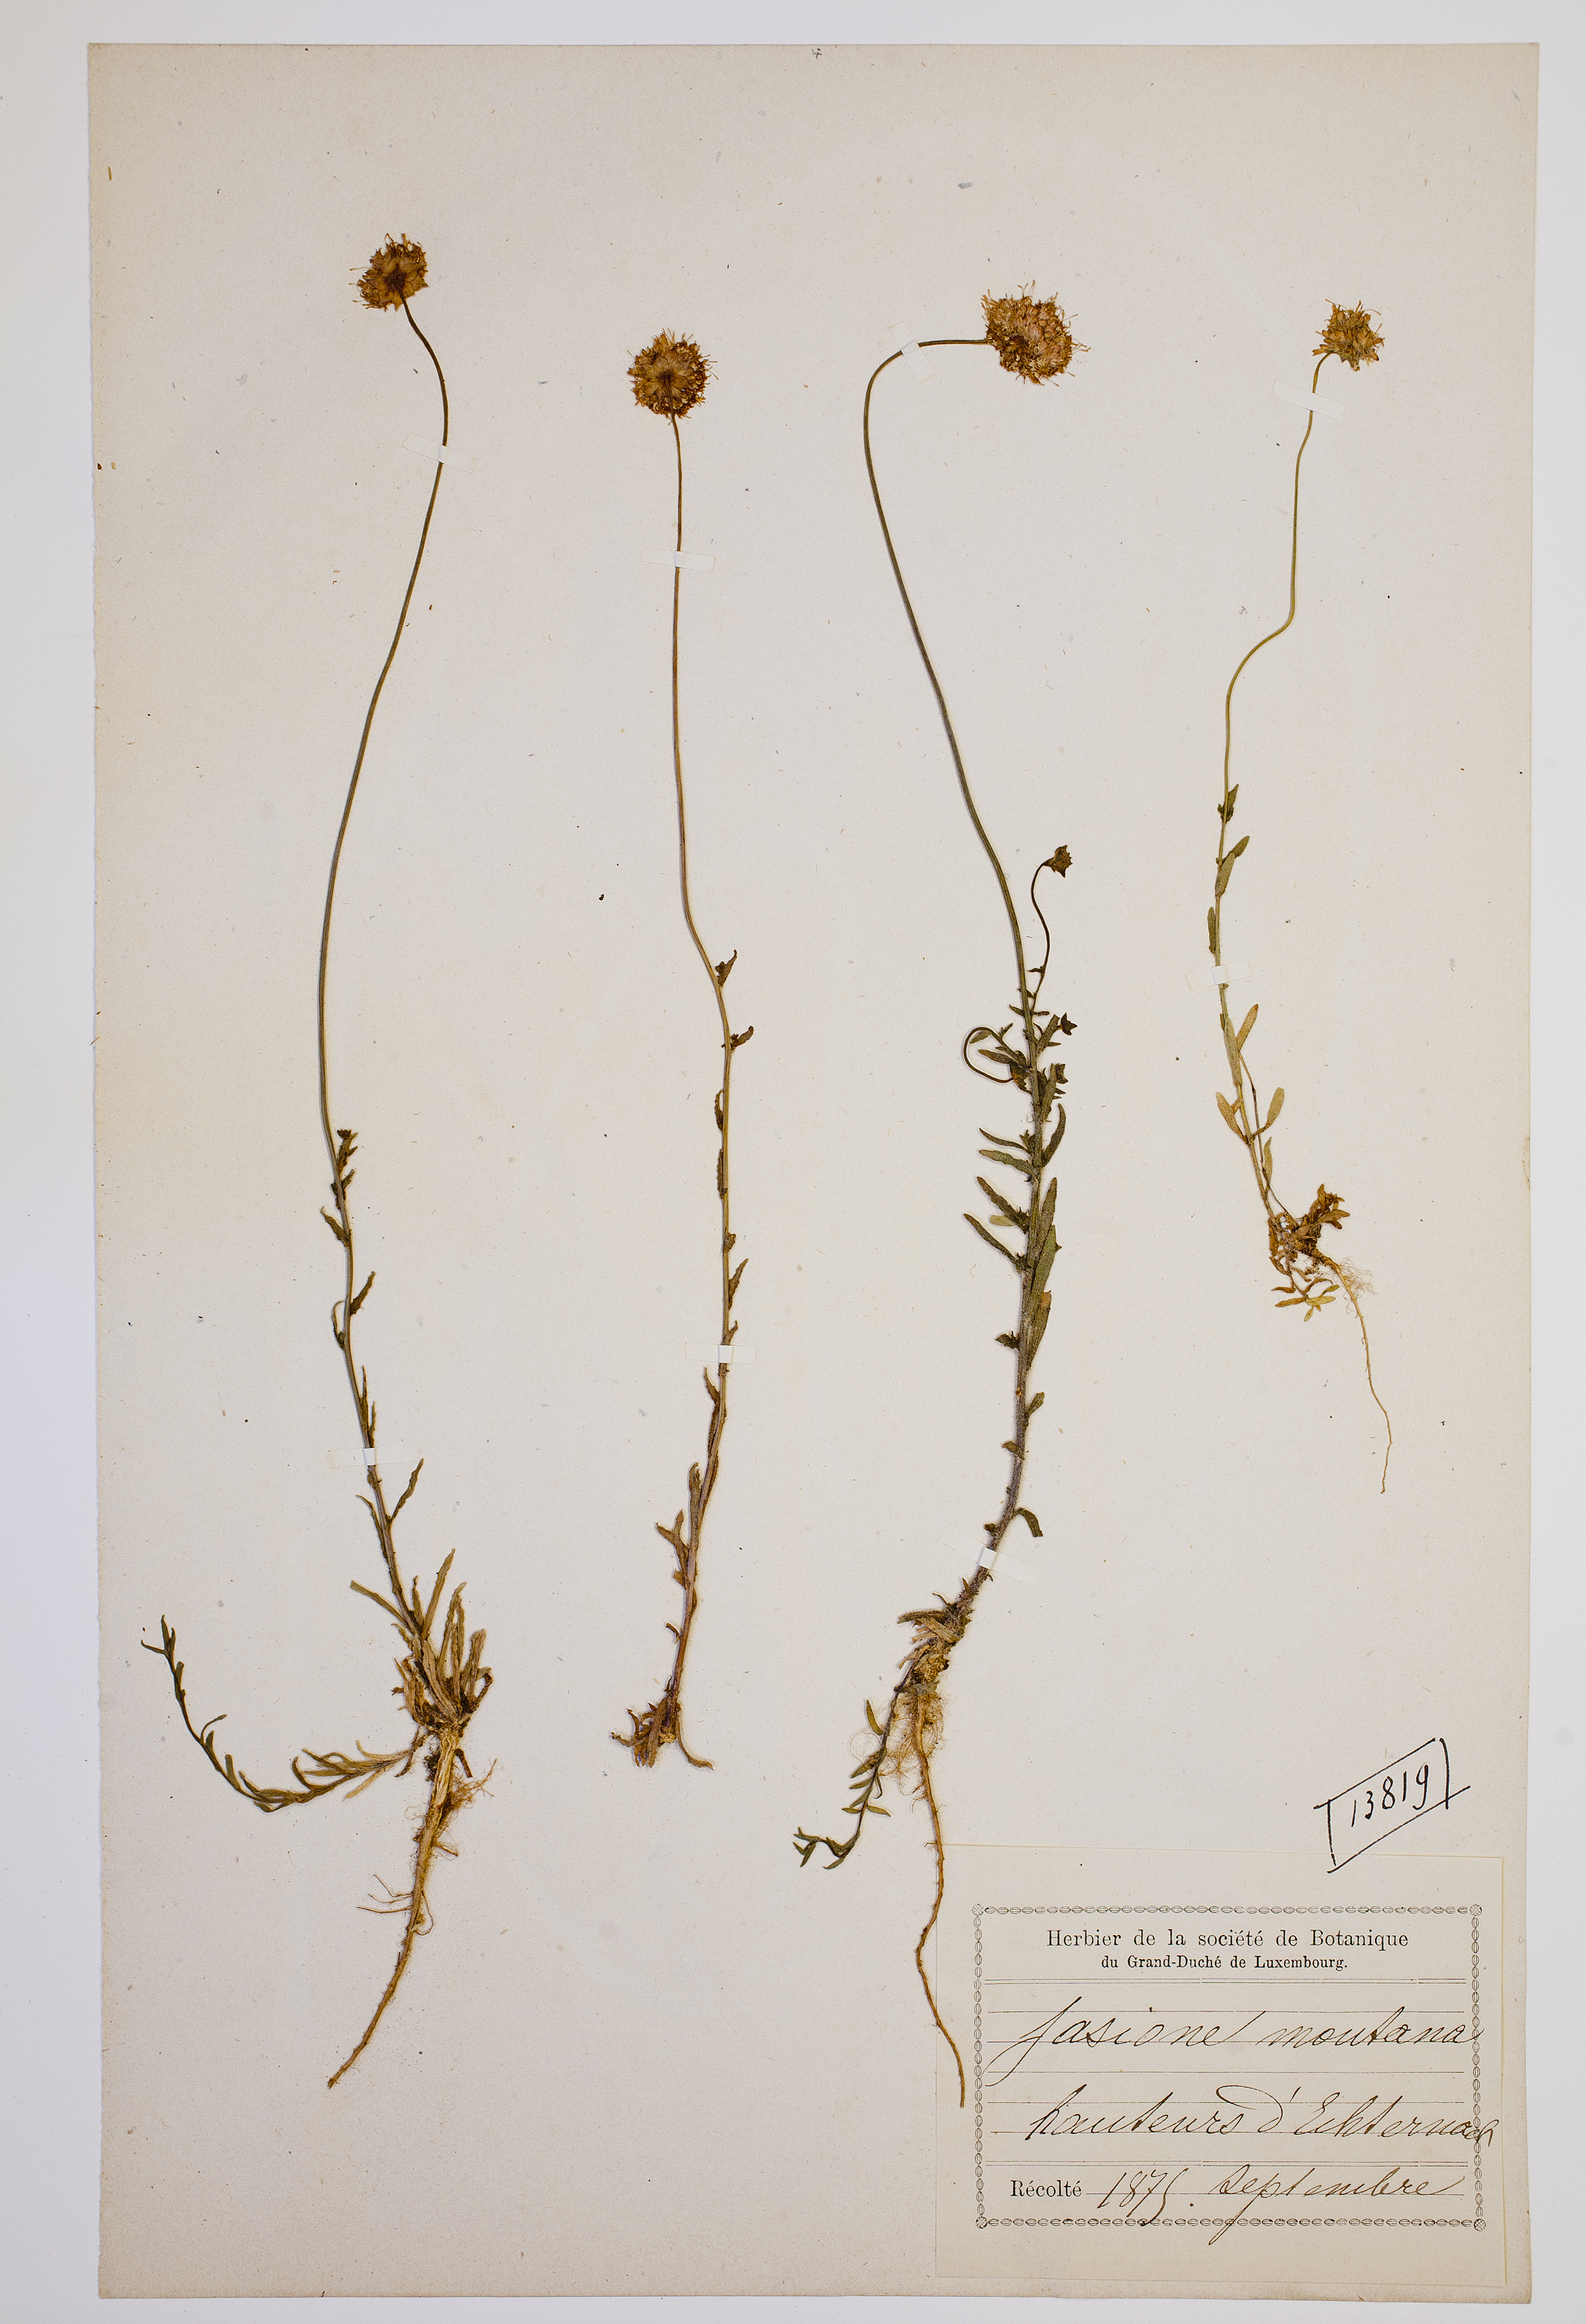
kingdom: Plantae
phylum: Tracheophyta
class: Magnoliopsida
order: Asterales
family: Campanulaceae
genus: Jasione
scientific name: Jasione montana
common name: Sheep's-bit
